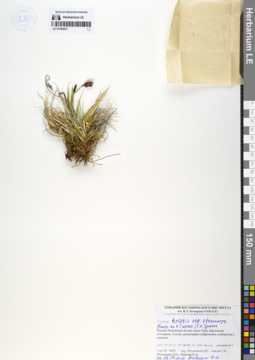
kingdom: Plantae
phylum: Tracheophyta
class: Liliopsida
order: Poales
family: Cyperaceae
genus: Carex
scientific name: Carex stenocarpa
